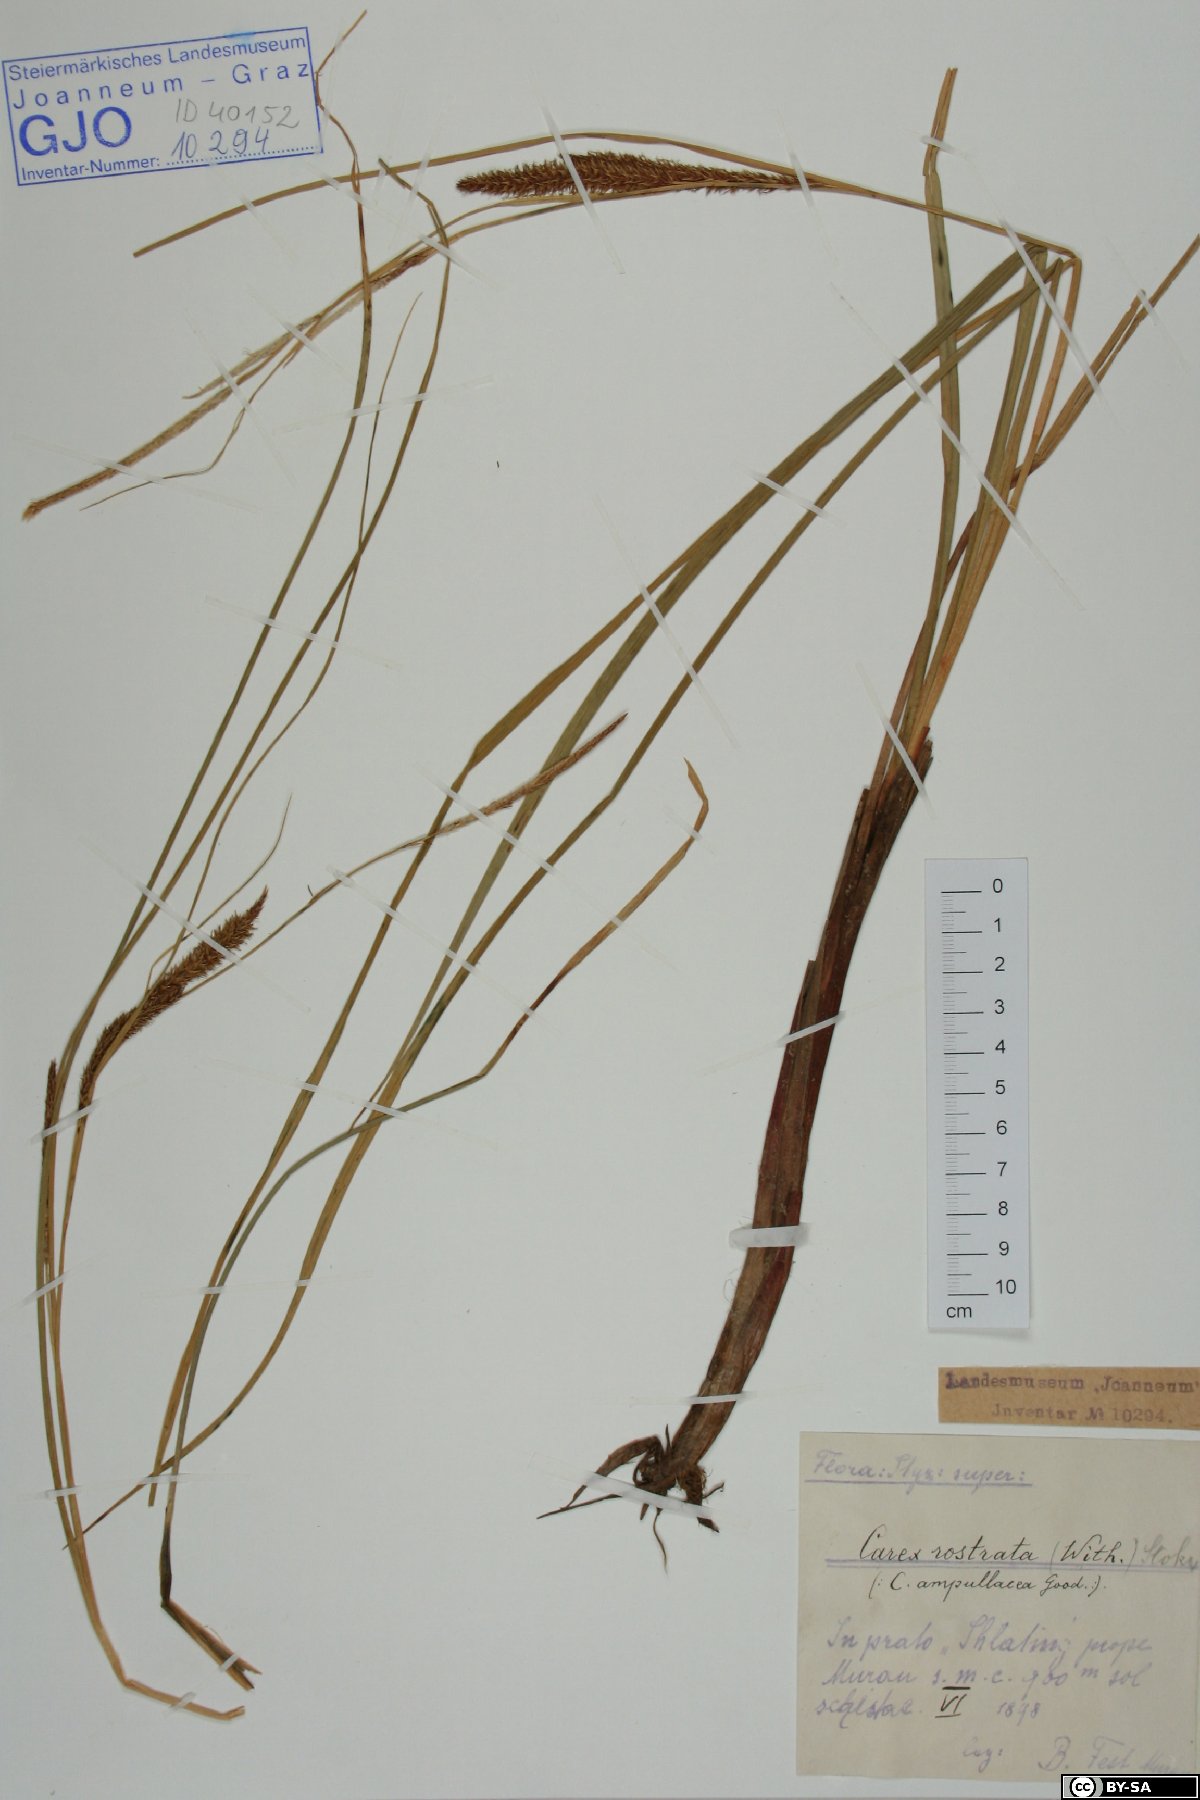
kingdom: Plantae
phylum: Tracheophyta
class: Liliopsida
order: Poales
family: Cyperaceae
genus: Carex
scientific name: Carex rostrata
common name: Bottle sedge
